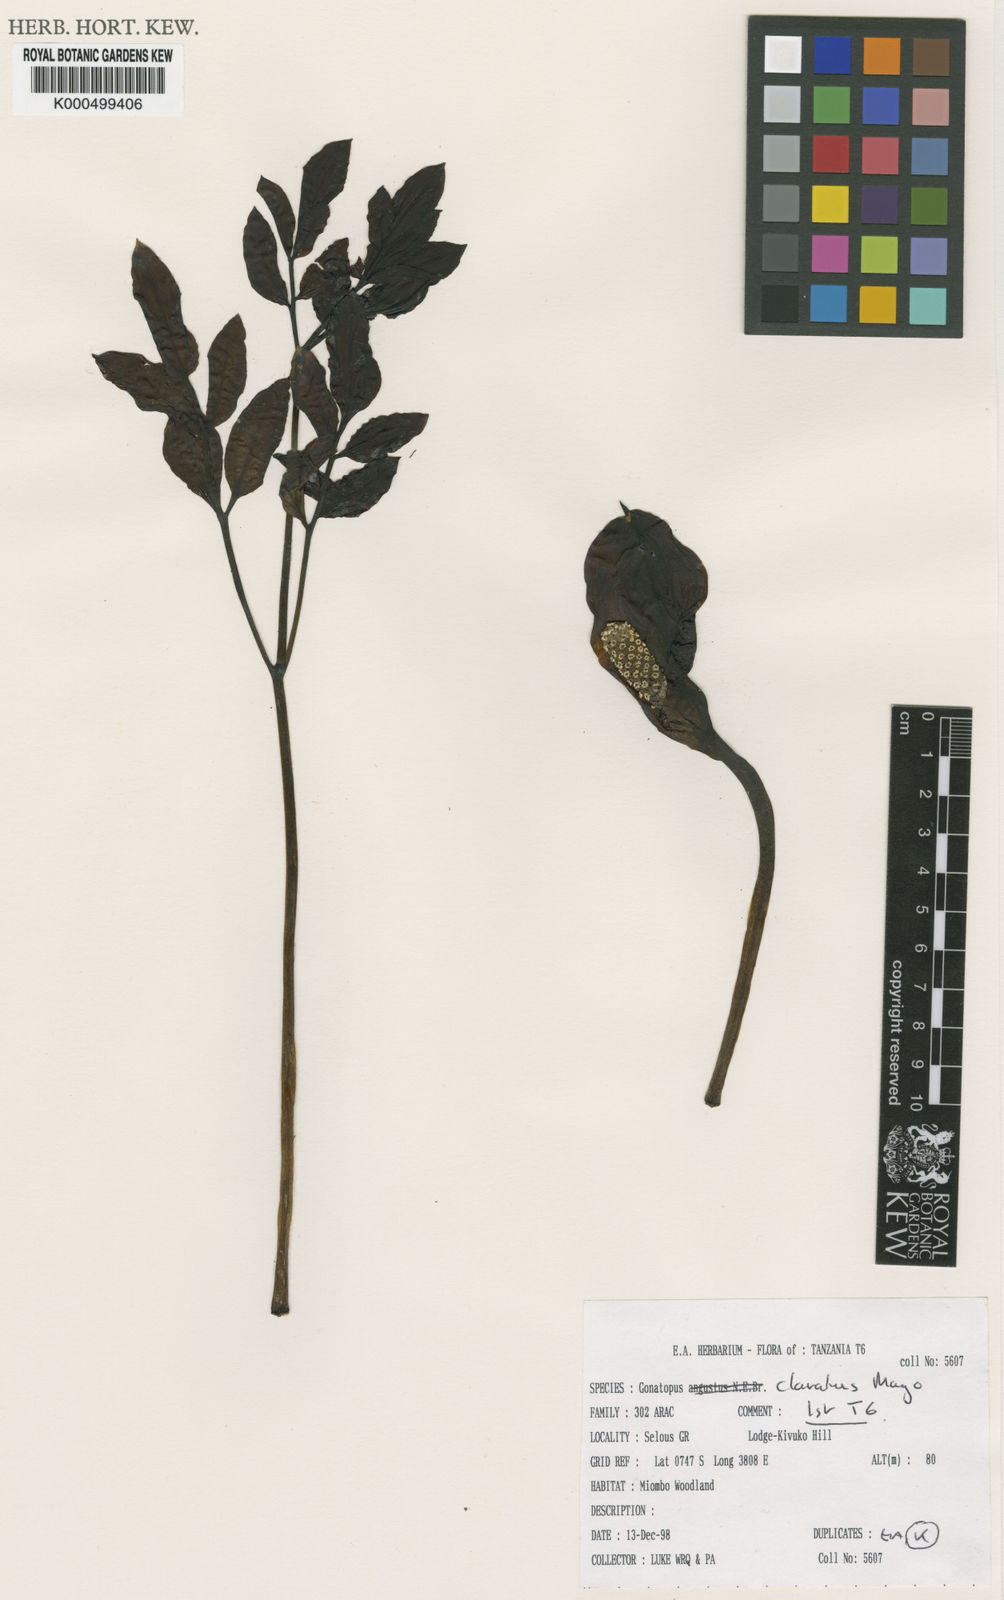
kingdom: Plantae
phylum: Tracheophyta
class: Liliopsida
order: Alismatales
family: Araceae
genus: Gonatopus
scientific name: Gonatopus clavatus
